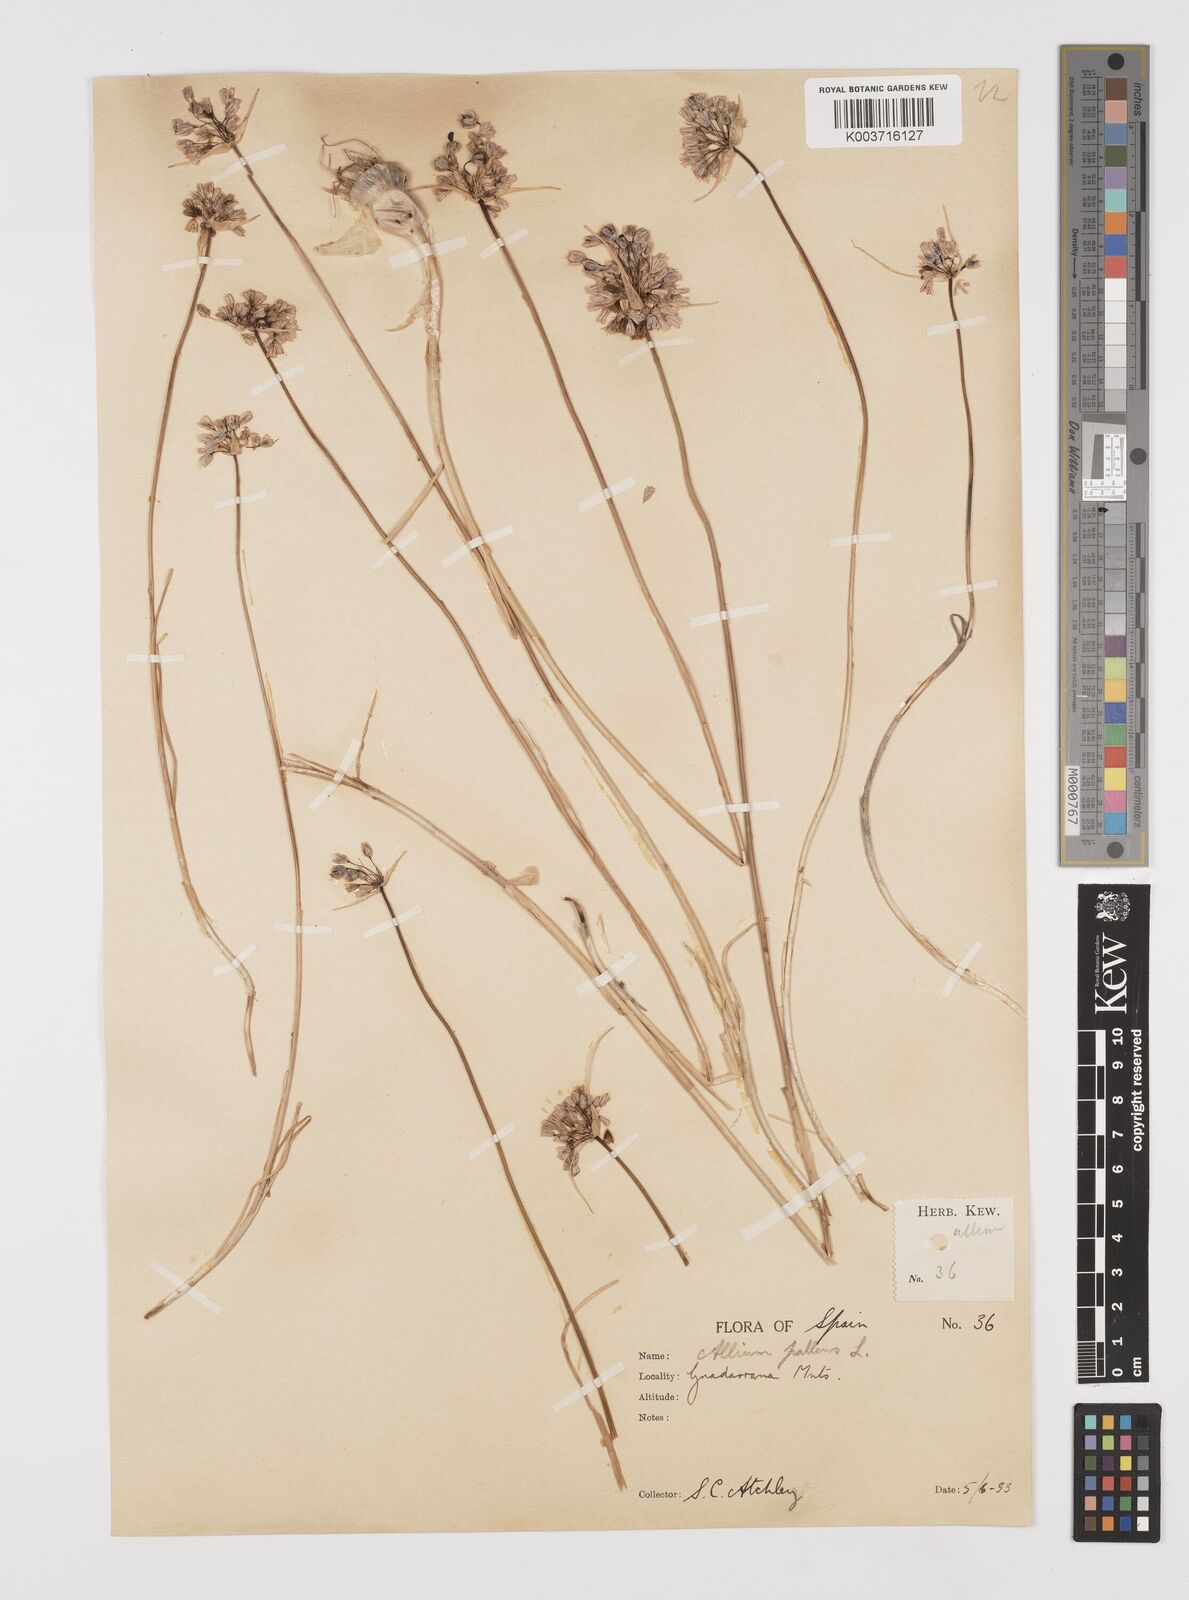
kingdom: Plantae
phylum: Tracheophyta
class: Liliopsida
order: Asparagales
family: Amaryllidaceae
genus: Allium
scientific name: Allium pallens
